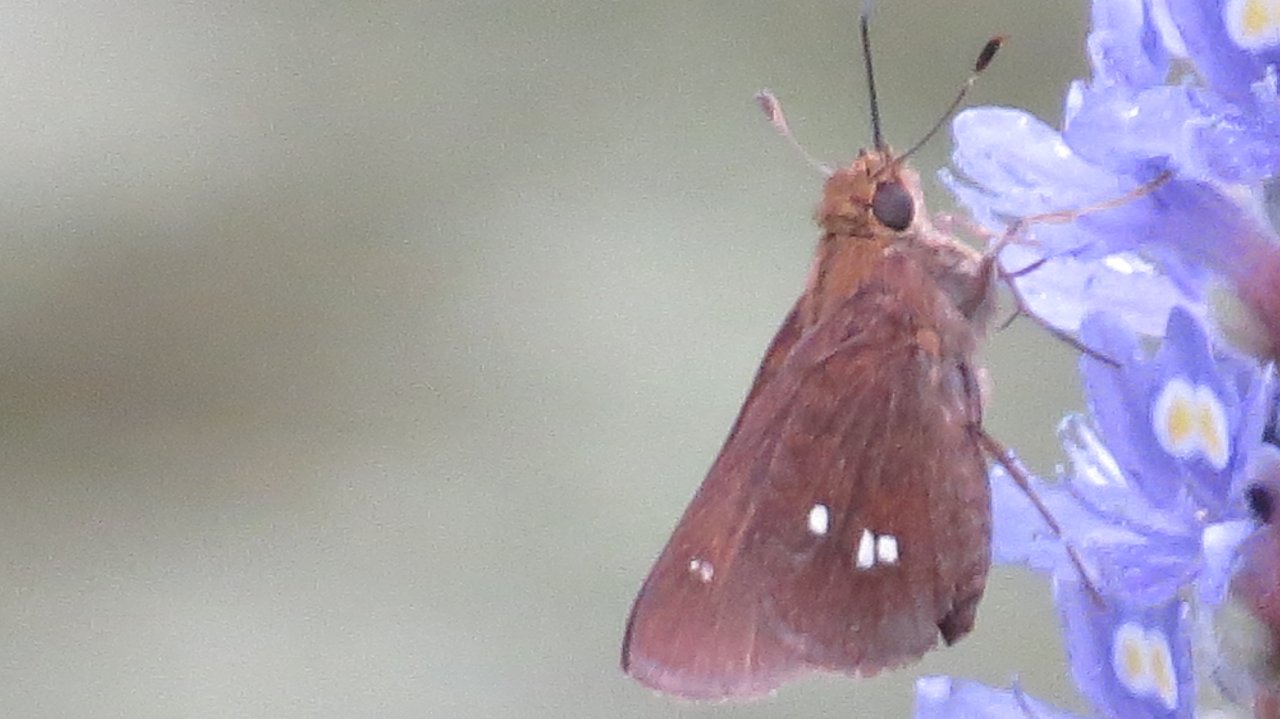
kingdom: Animalia
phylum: Arthropoda
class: Insecta
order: Lepidoptera
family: Hesperiidae
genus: Oligoria
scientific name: Oligoria maculata
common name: Twin-spot Skipper
